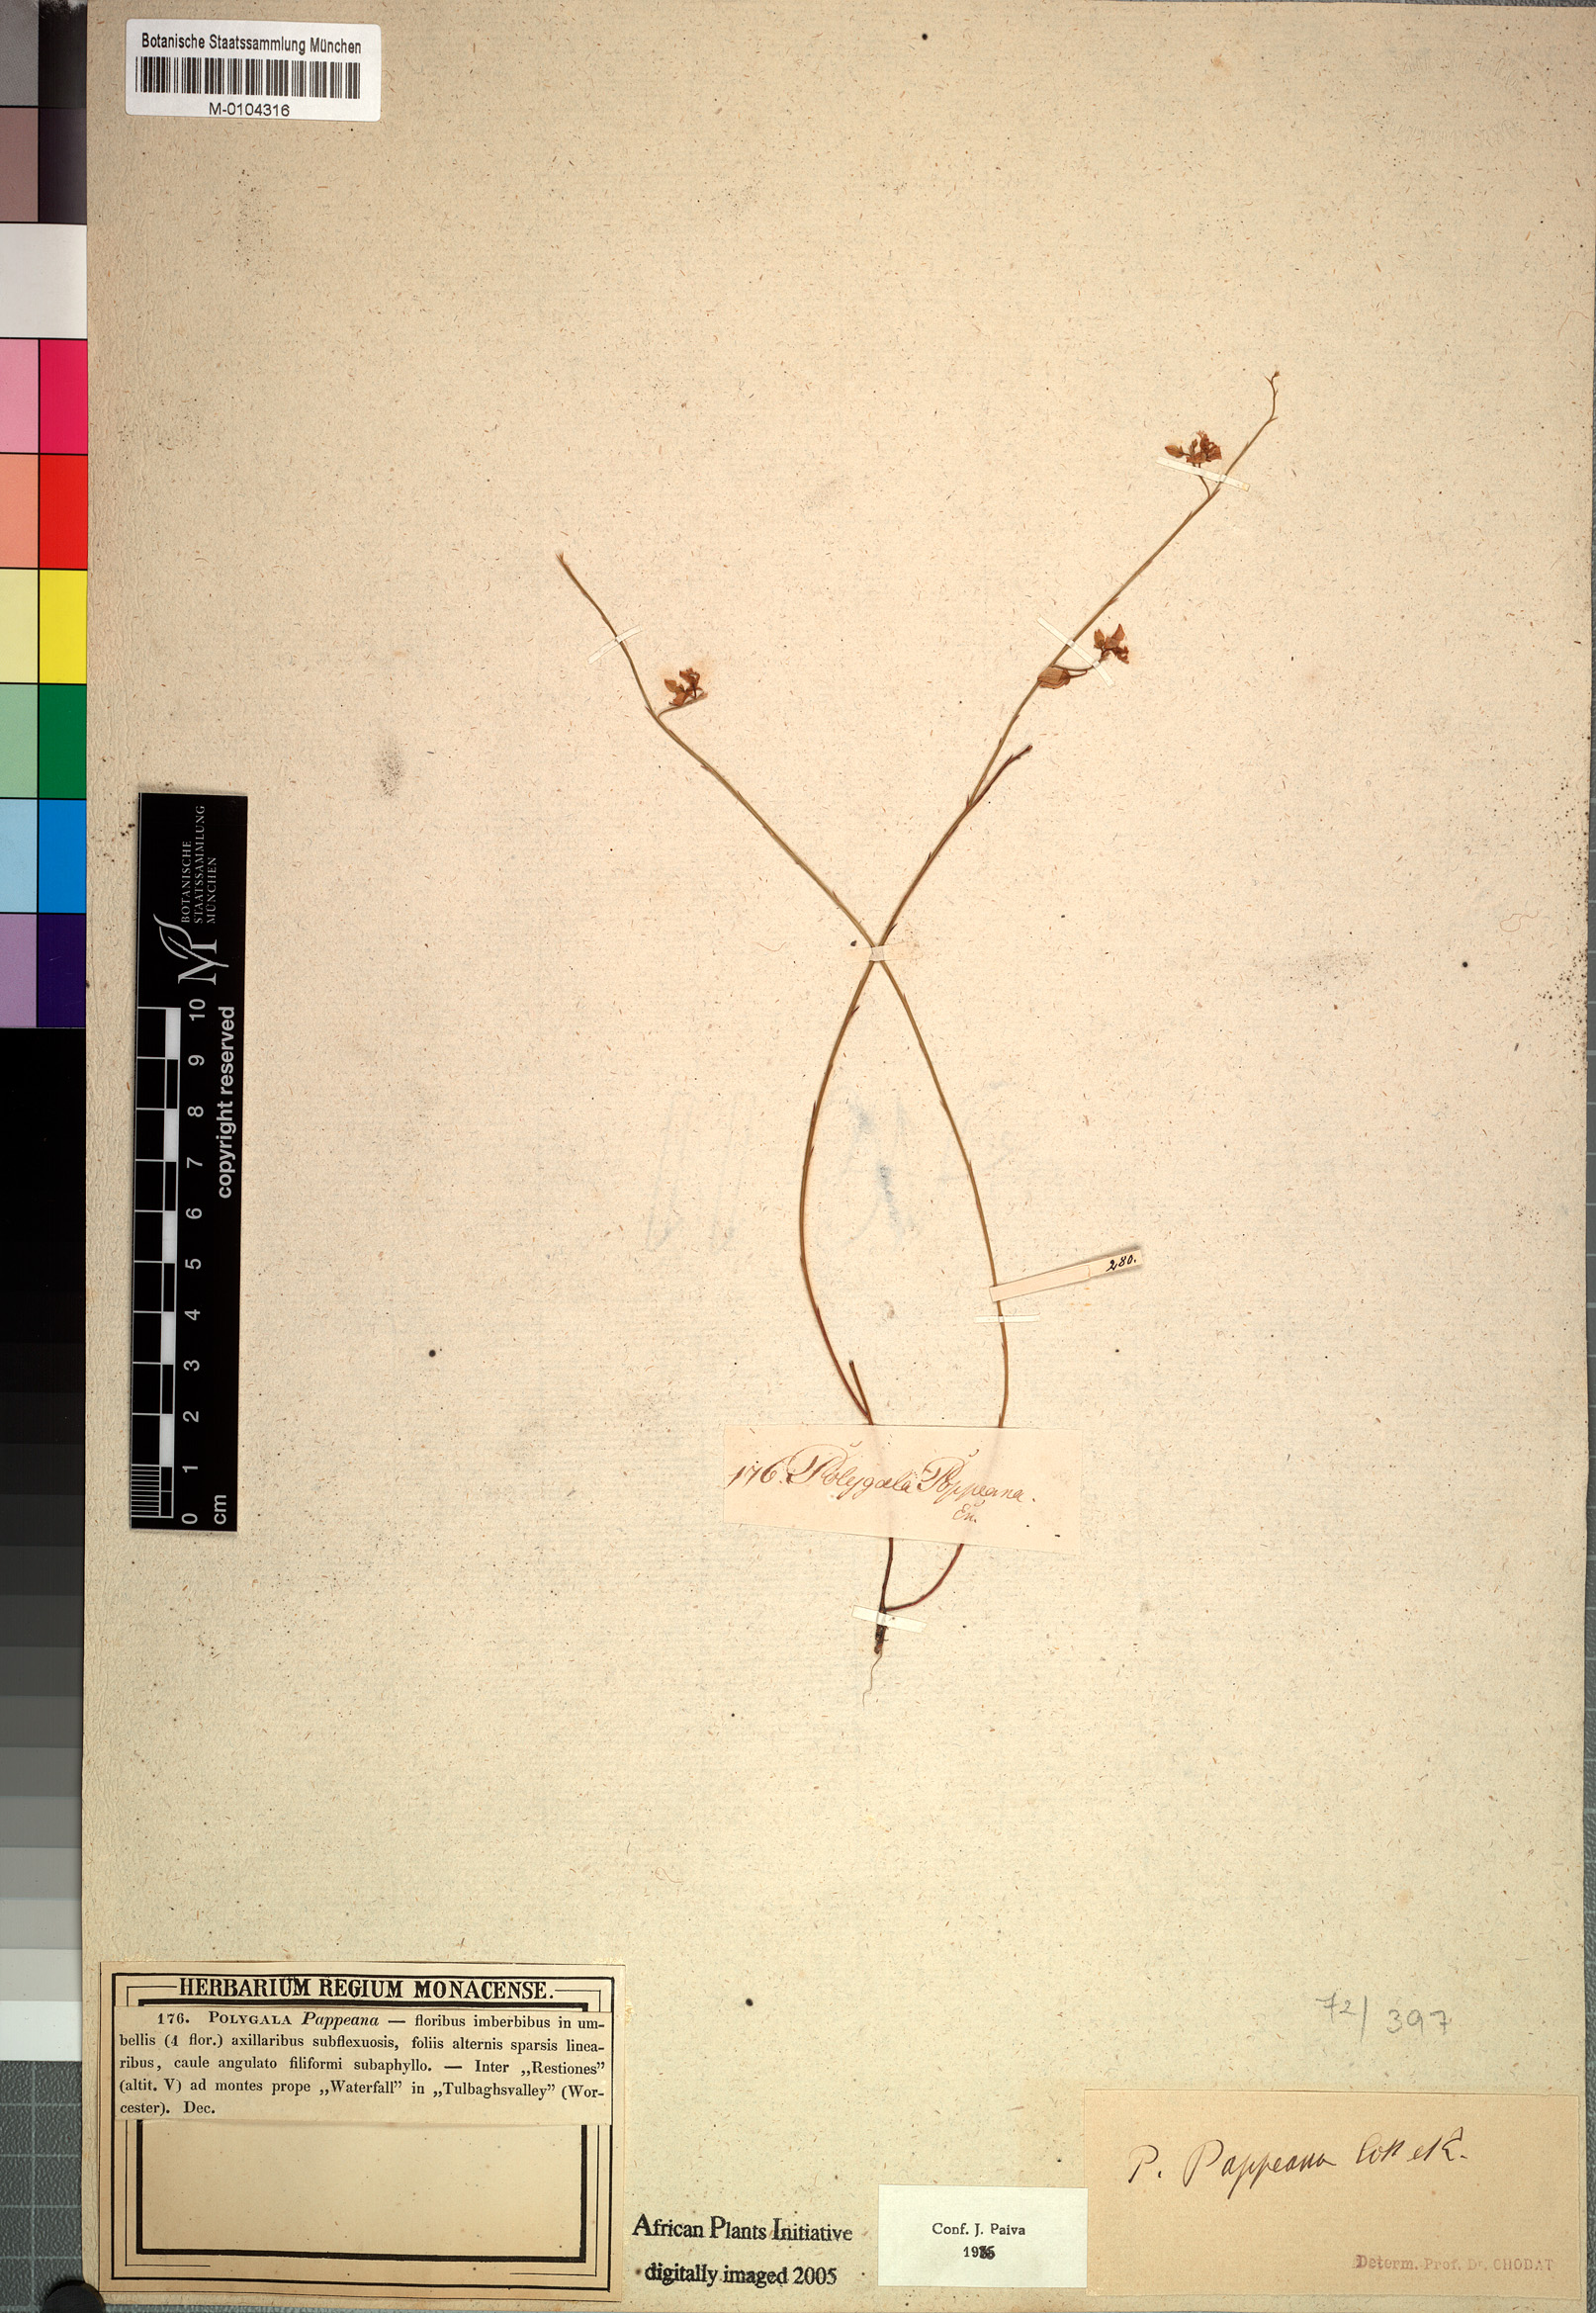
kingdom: Plantae
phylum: Tracheophyta
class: Magnoliopsida
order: Fabales
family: Polygalaceae
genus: Polygala
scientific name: Polygala pappeana
